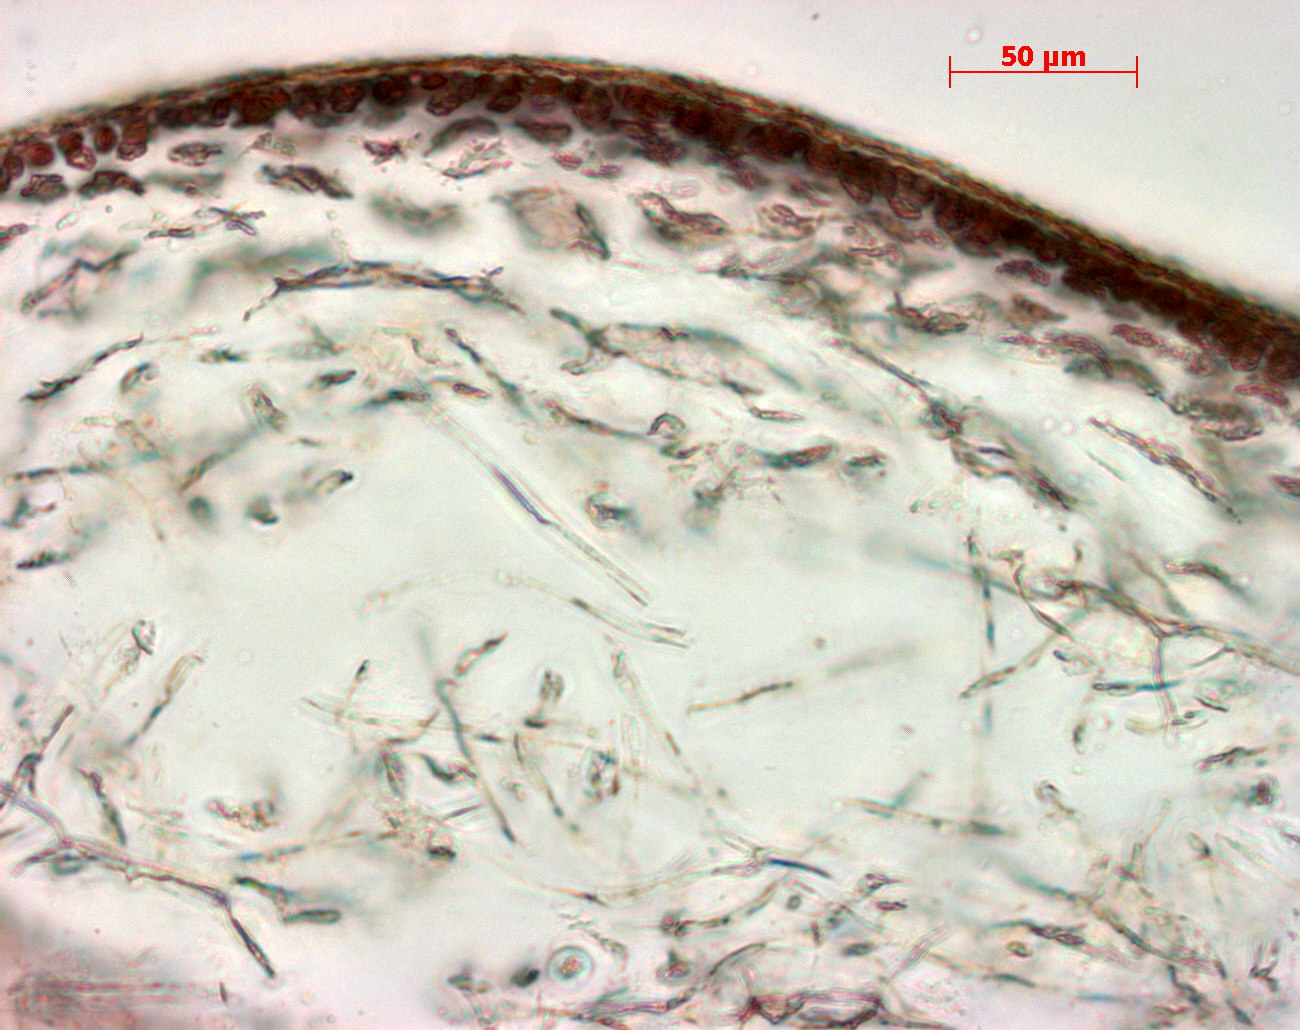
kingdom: Plantae
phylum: Rhodophyta
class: Florideophyceae
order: Gigartinales
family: Kallymeniaceae
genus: Psaromenia
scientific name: Psaromenia berggrenii
